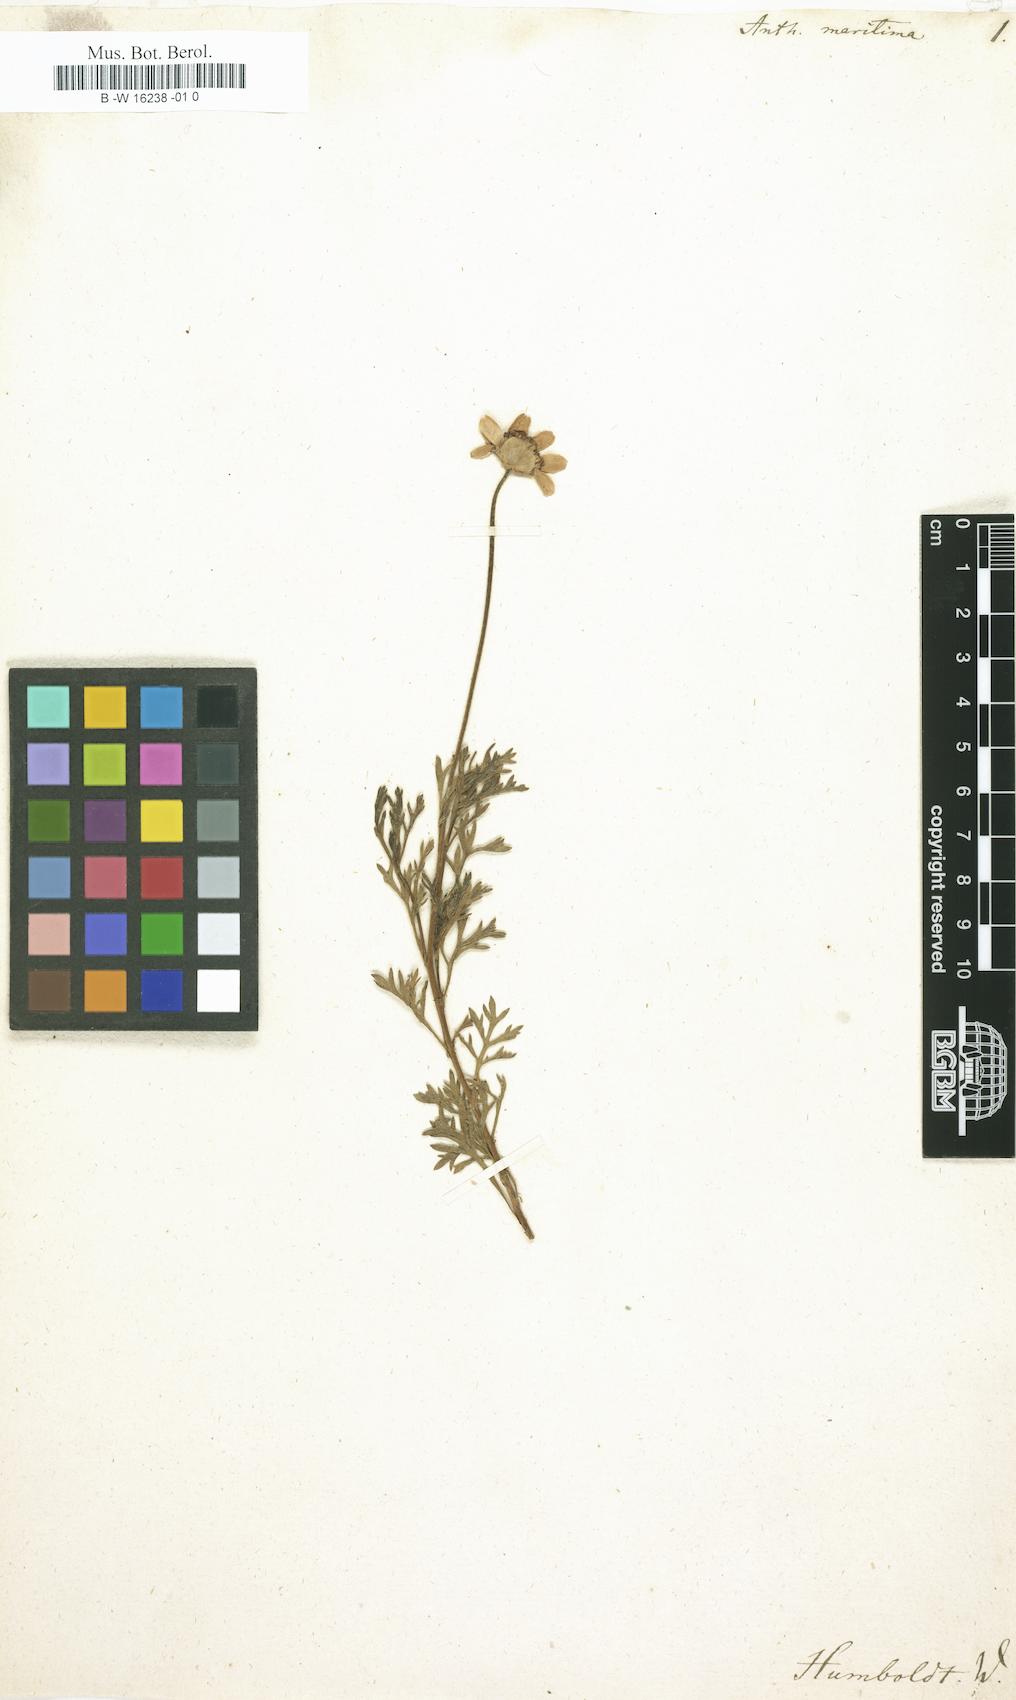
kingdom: Plantae
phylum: Tracheophyta
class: Magnoliopsida
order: Asterales
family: Asteraceae
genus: Anthemis
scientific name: Anthemis maritima
